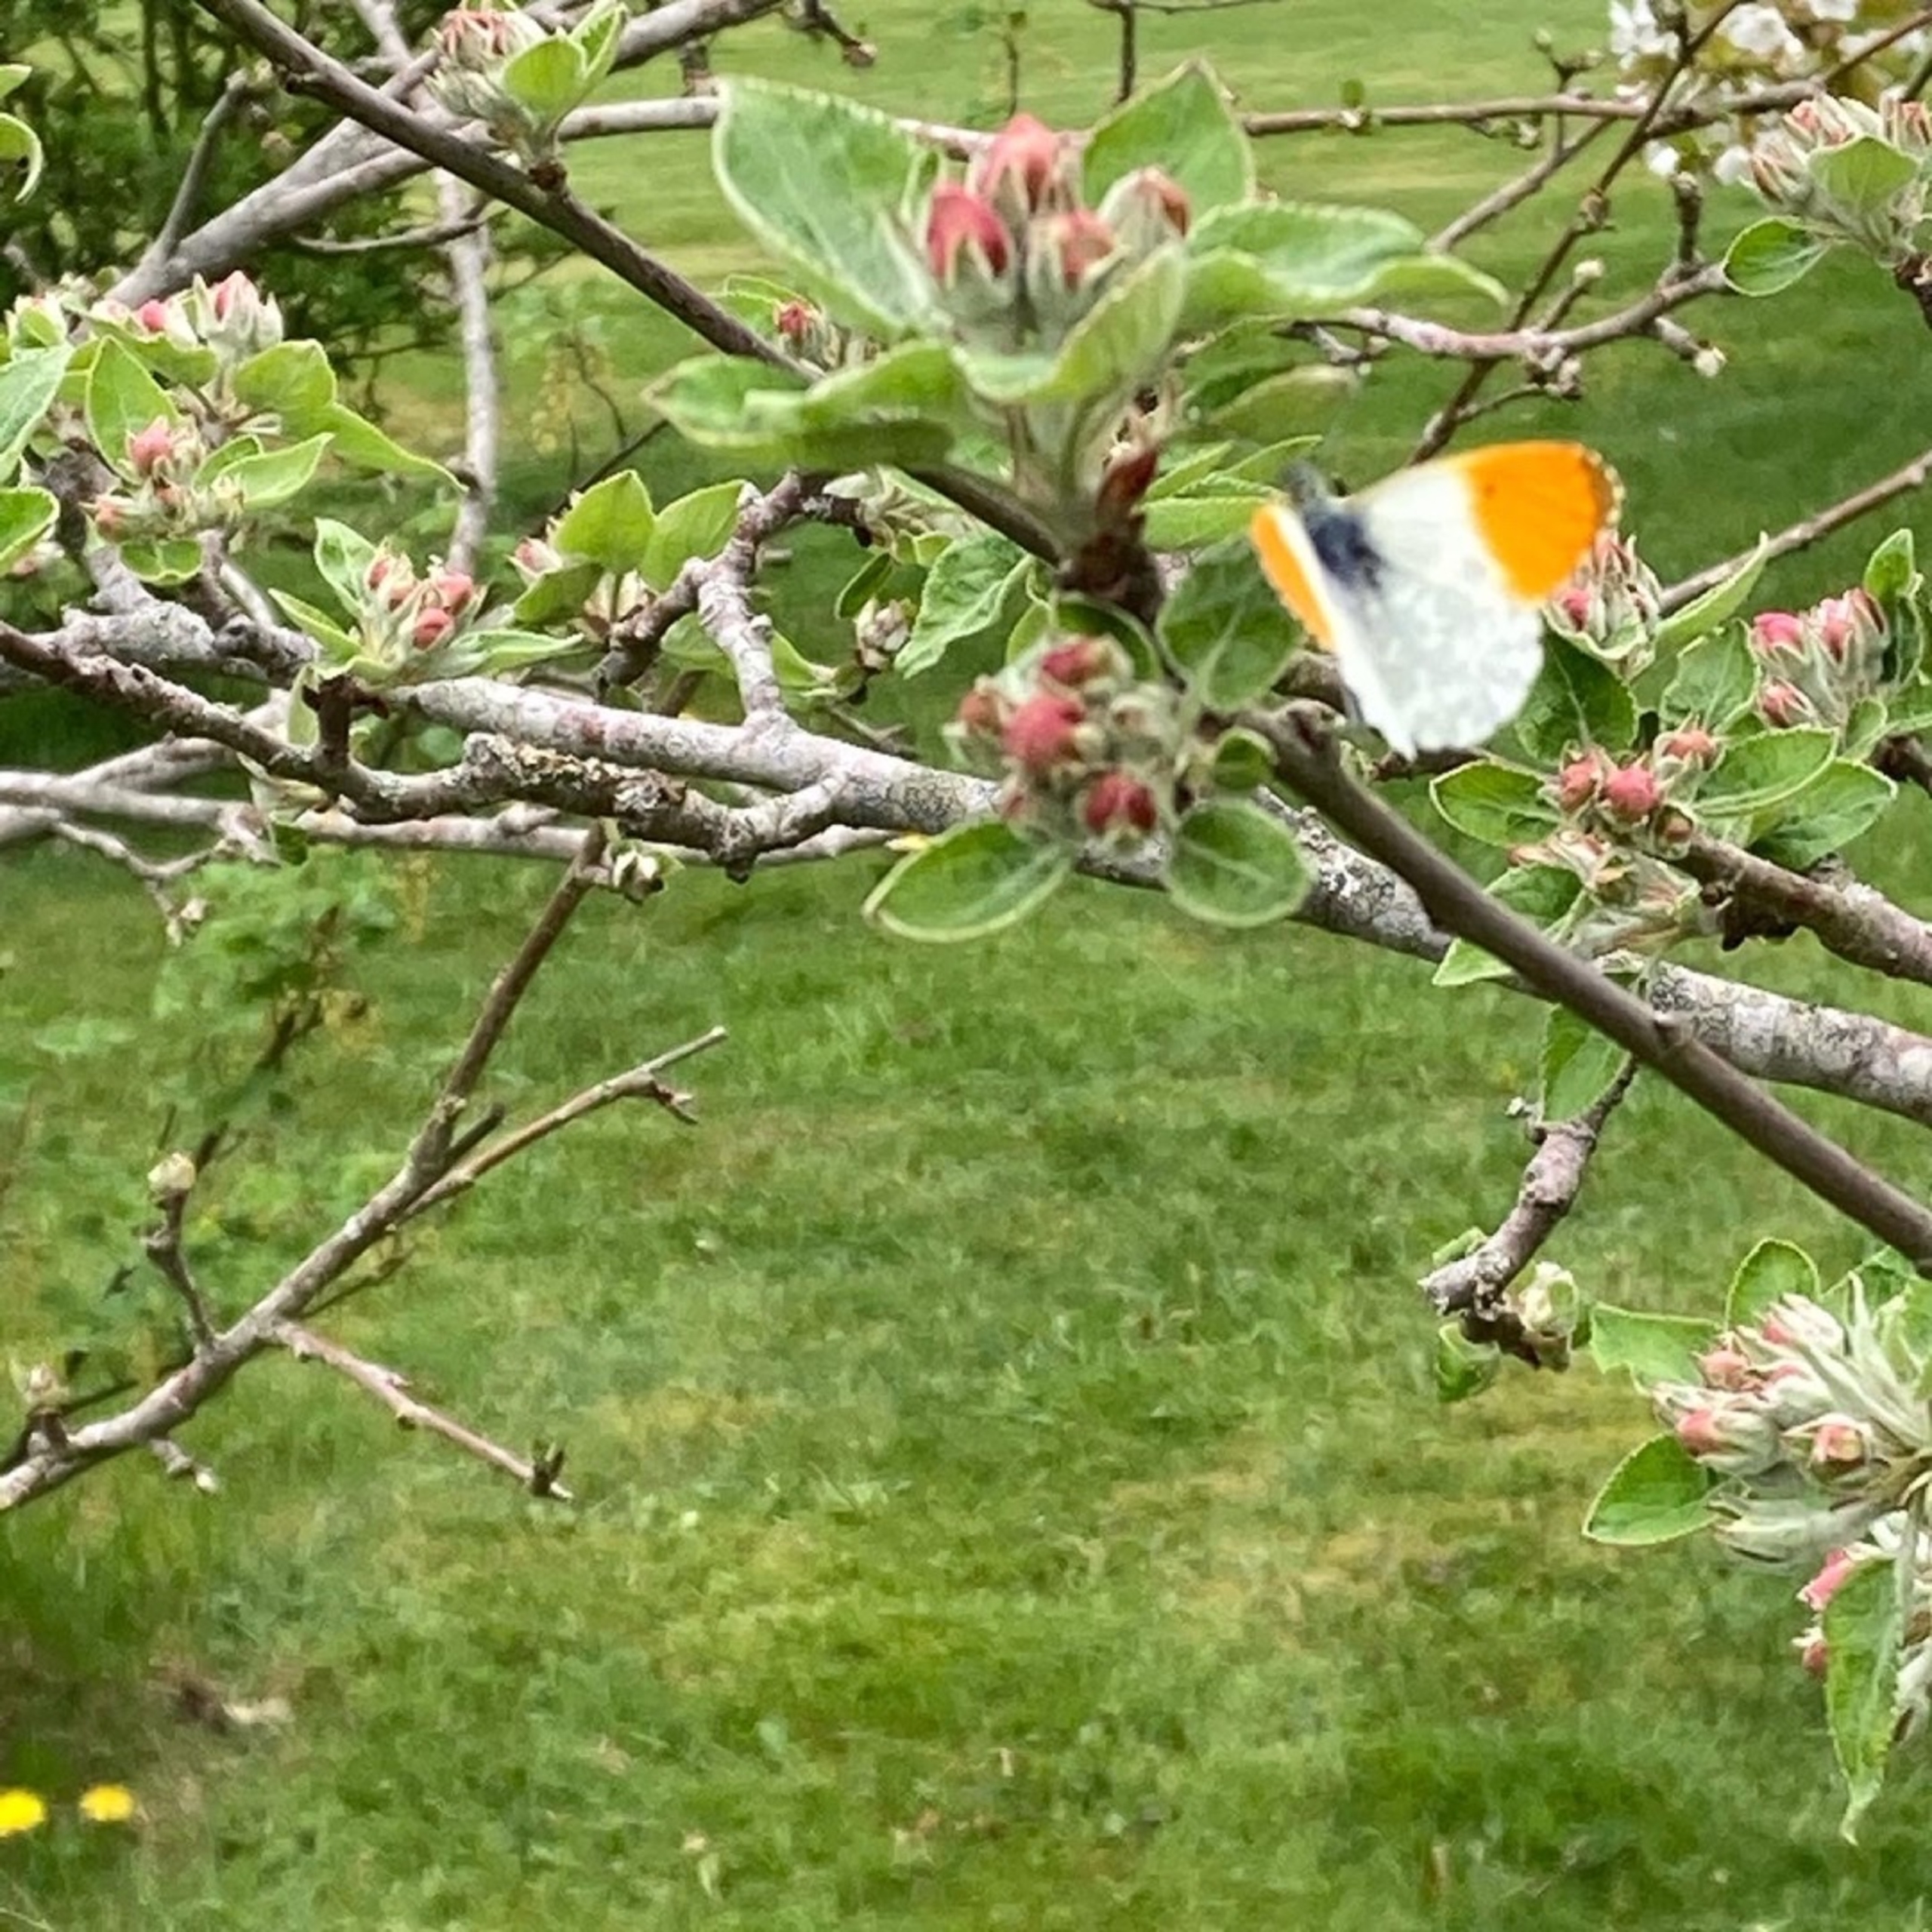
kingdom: Animalia
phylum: Arthropoda
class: Insecta
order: Lepidoptera
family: Pieridae
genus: Anthocharis
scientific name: Anthocharis cardamines
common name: Aurora
